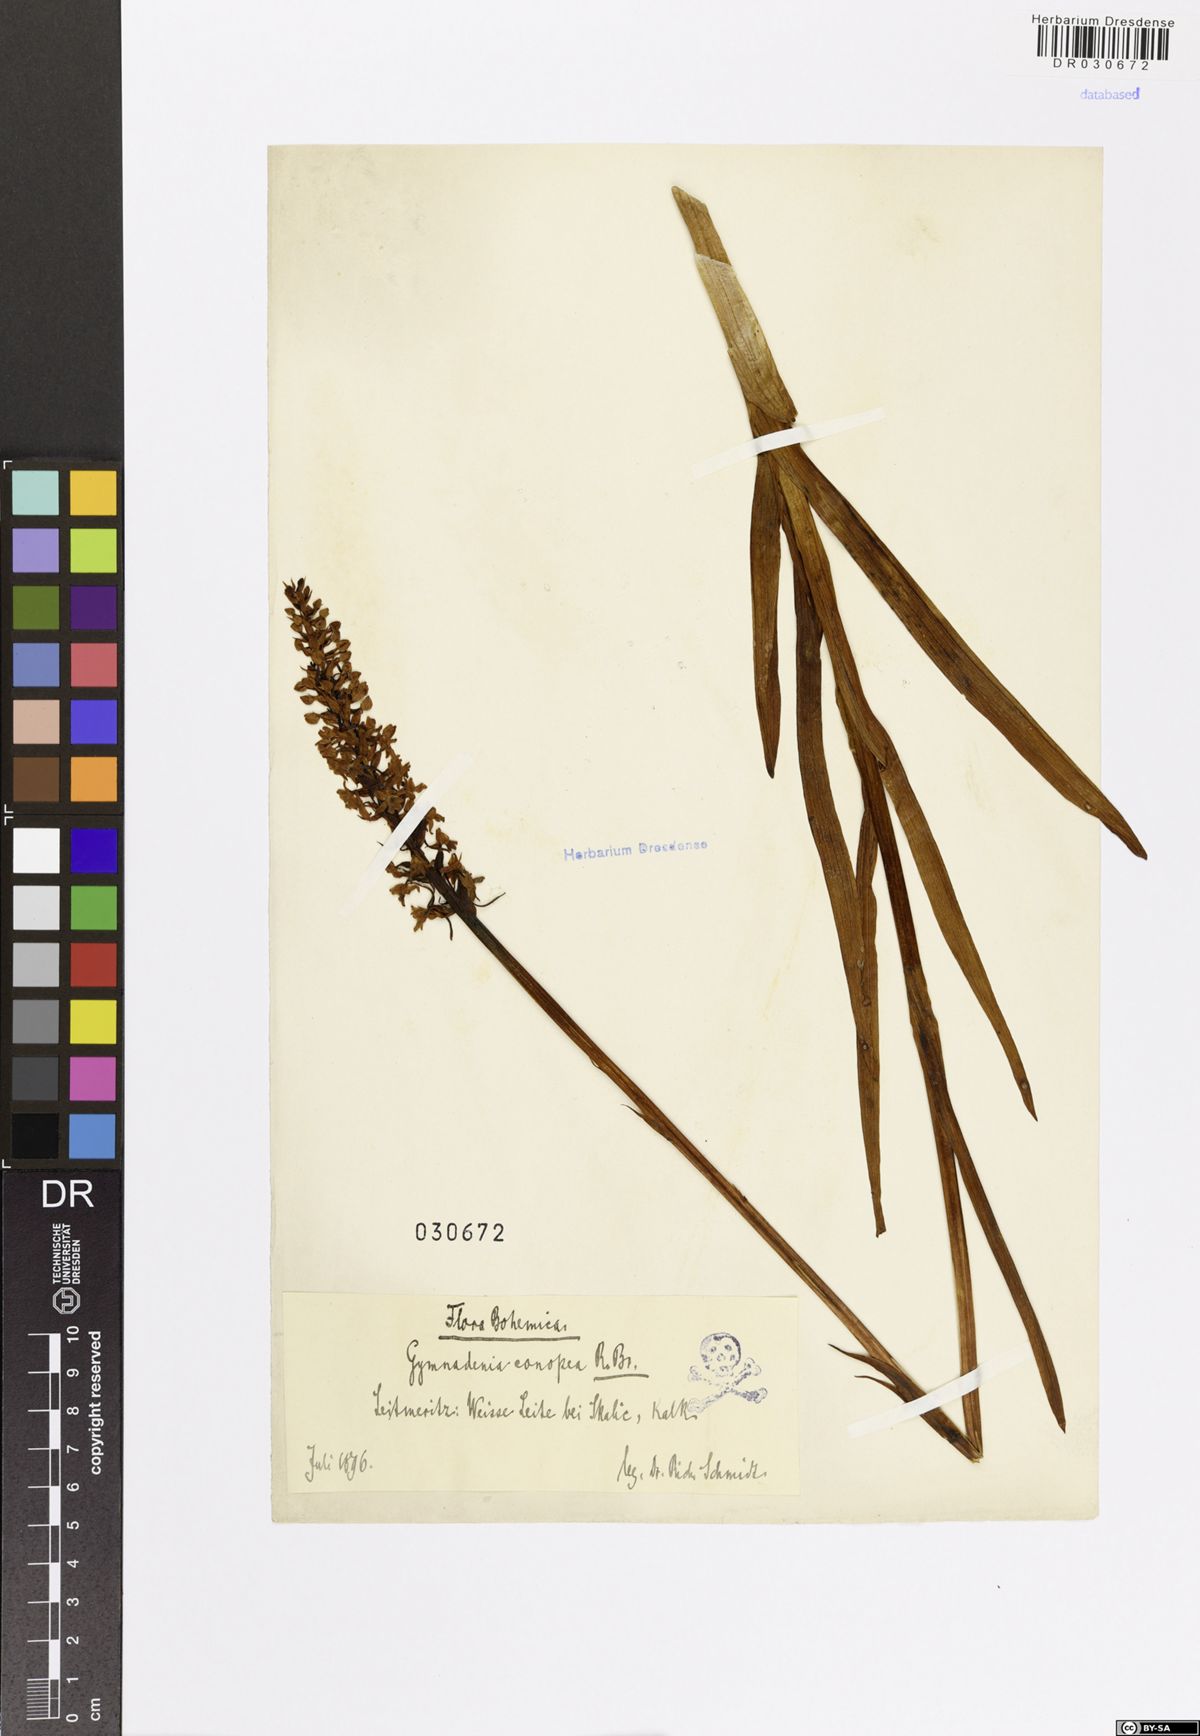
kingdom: Plantae
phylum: Tracheophyta
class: Liliopsida
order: Asparagales
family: Orchidaceae
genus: Gymnadenia
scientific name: Gymnadenia conopsea
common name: Fragrant orchid
